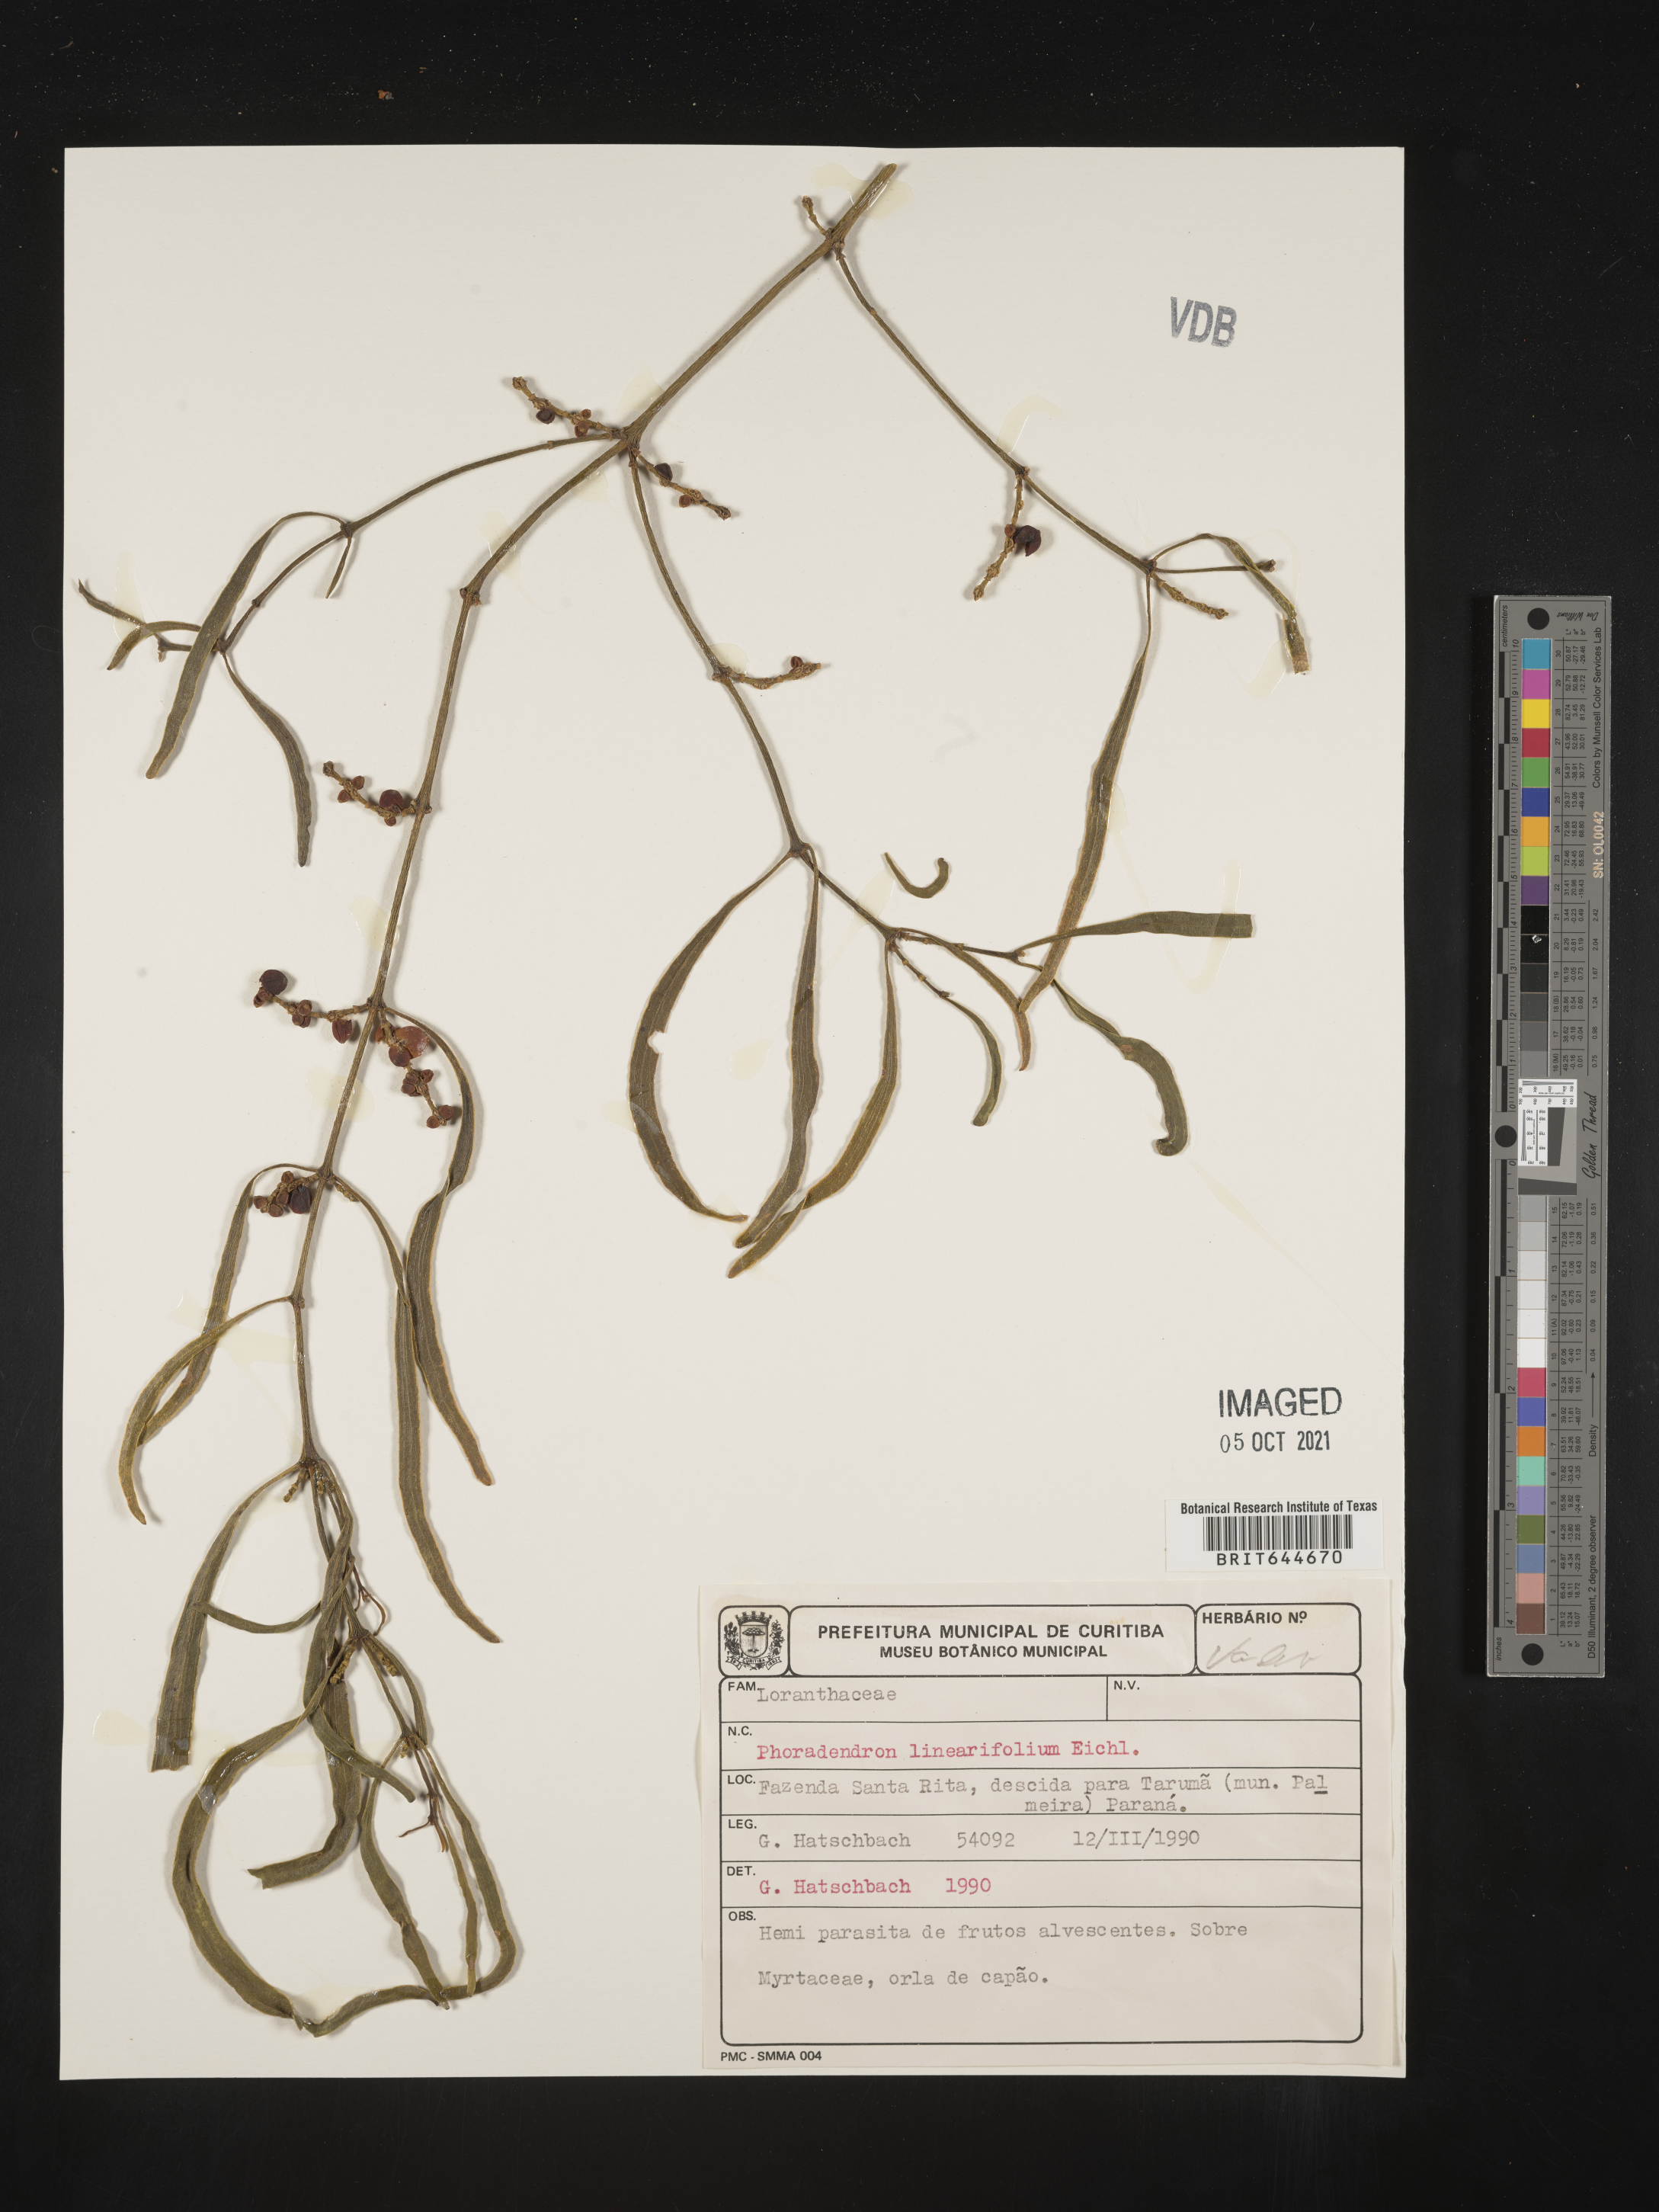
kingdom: Plantae
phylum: Tracheophyta
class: Magnoliopsida
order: Santalales
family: Viscaceae
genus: Phoradendron
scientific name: Phoradendron
